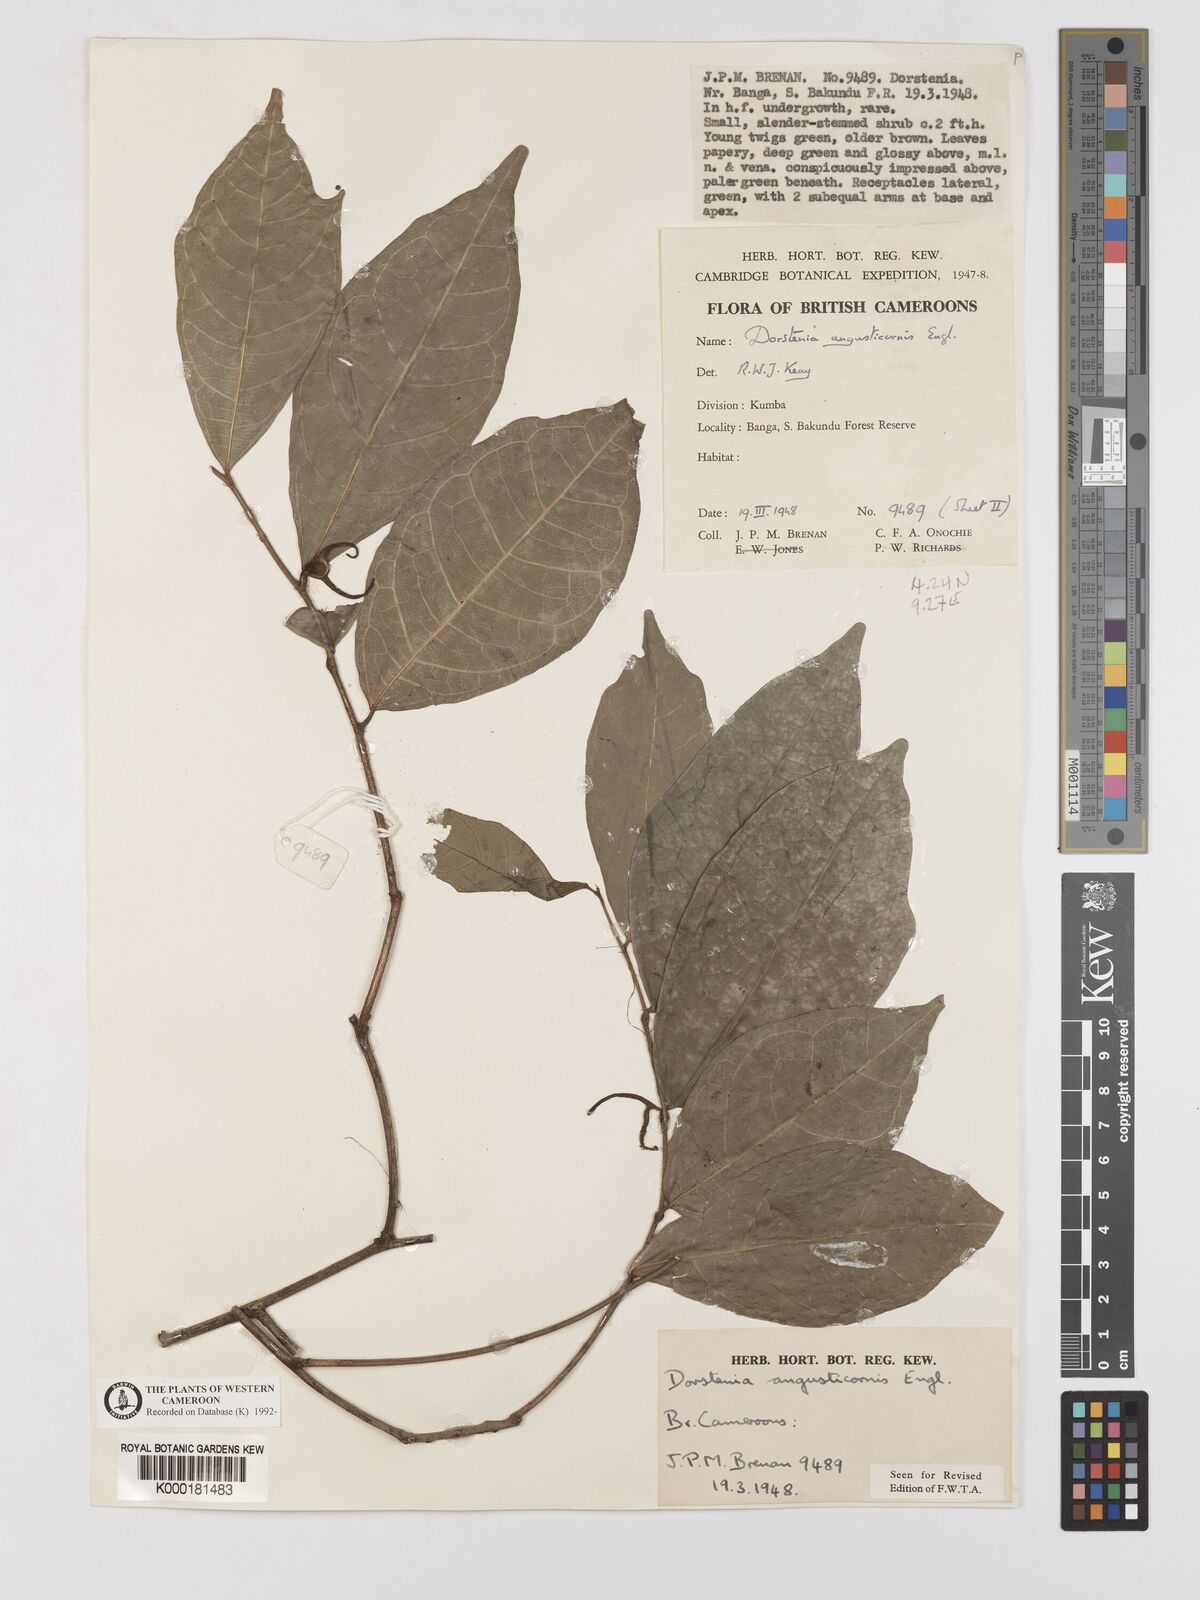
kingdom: Plantae
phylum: Tracheophyta
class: Magnoliopsida
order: Rosales
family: Moraceae
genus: Hijmania
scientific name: Hijmania angusticornis
